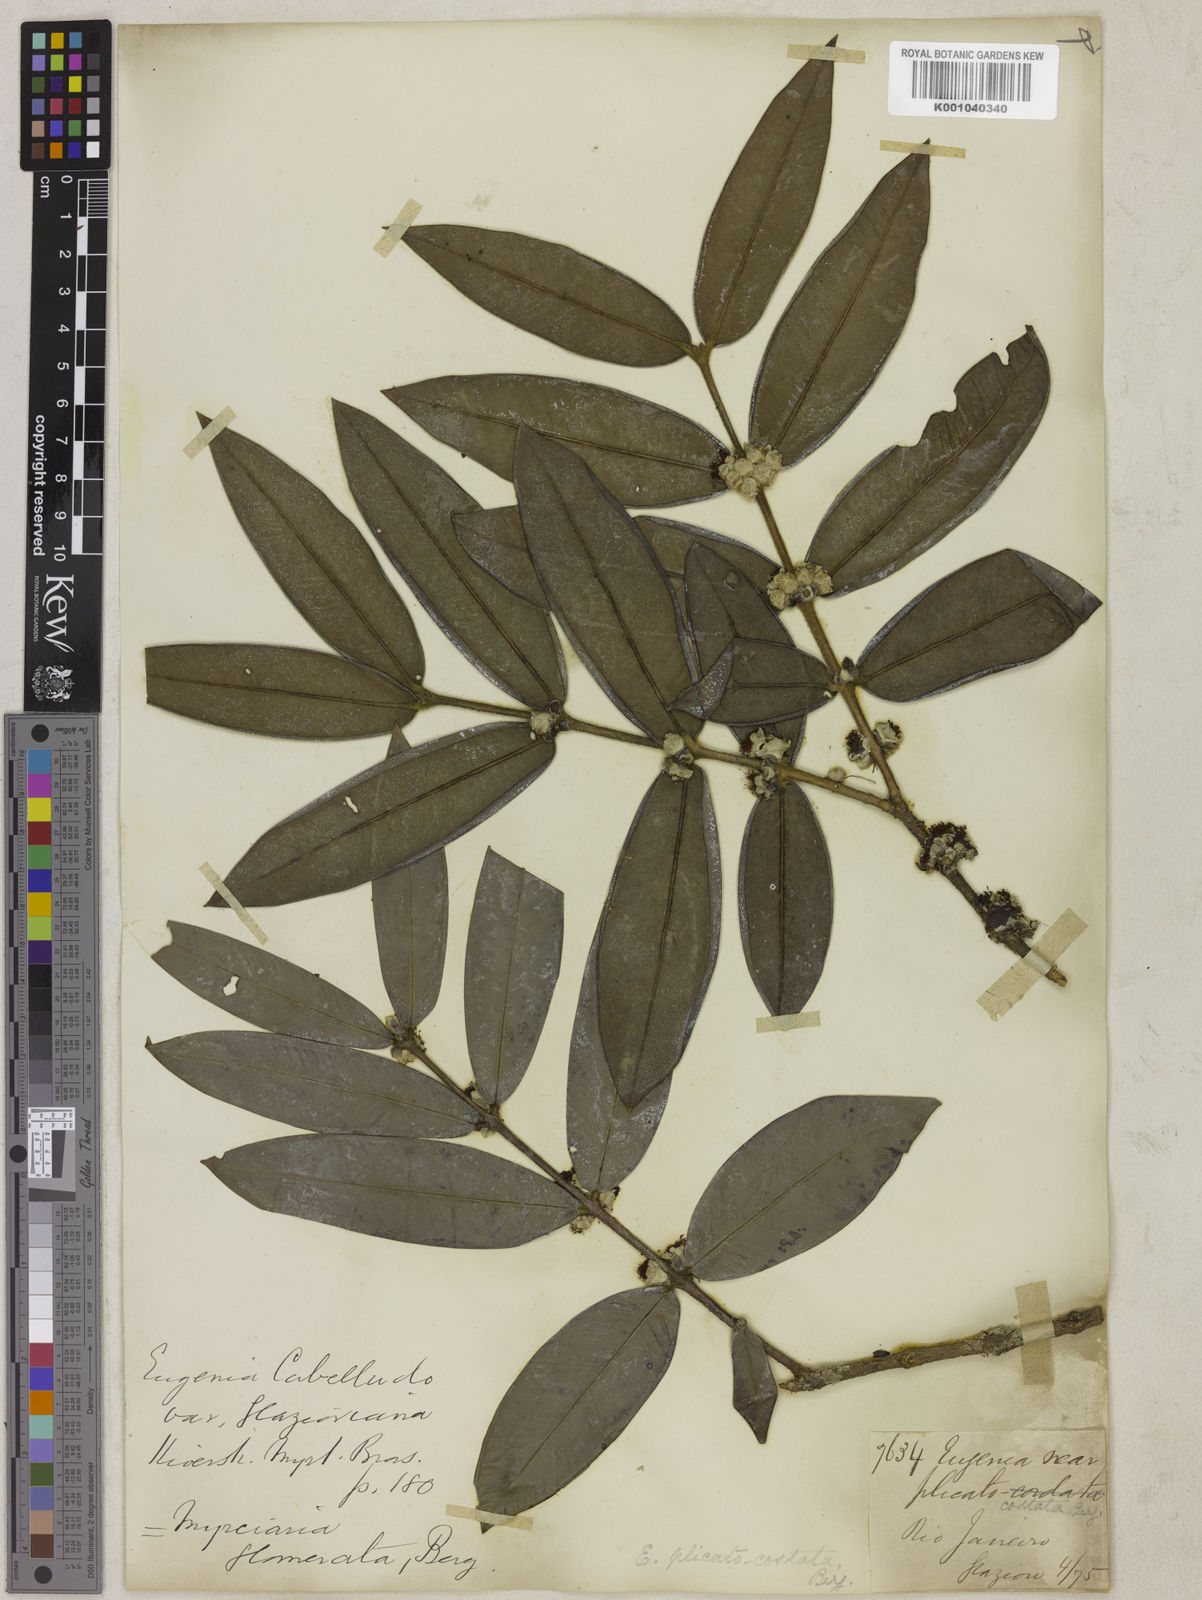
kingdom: Plantae
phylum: Tracheophyta
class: Magnoliopsida
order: Myrtales
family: Myrtaceae
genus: Myrciaria
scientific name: Myrciaria glazioviana
